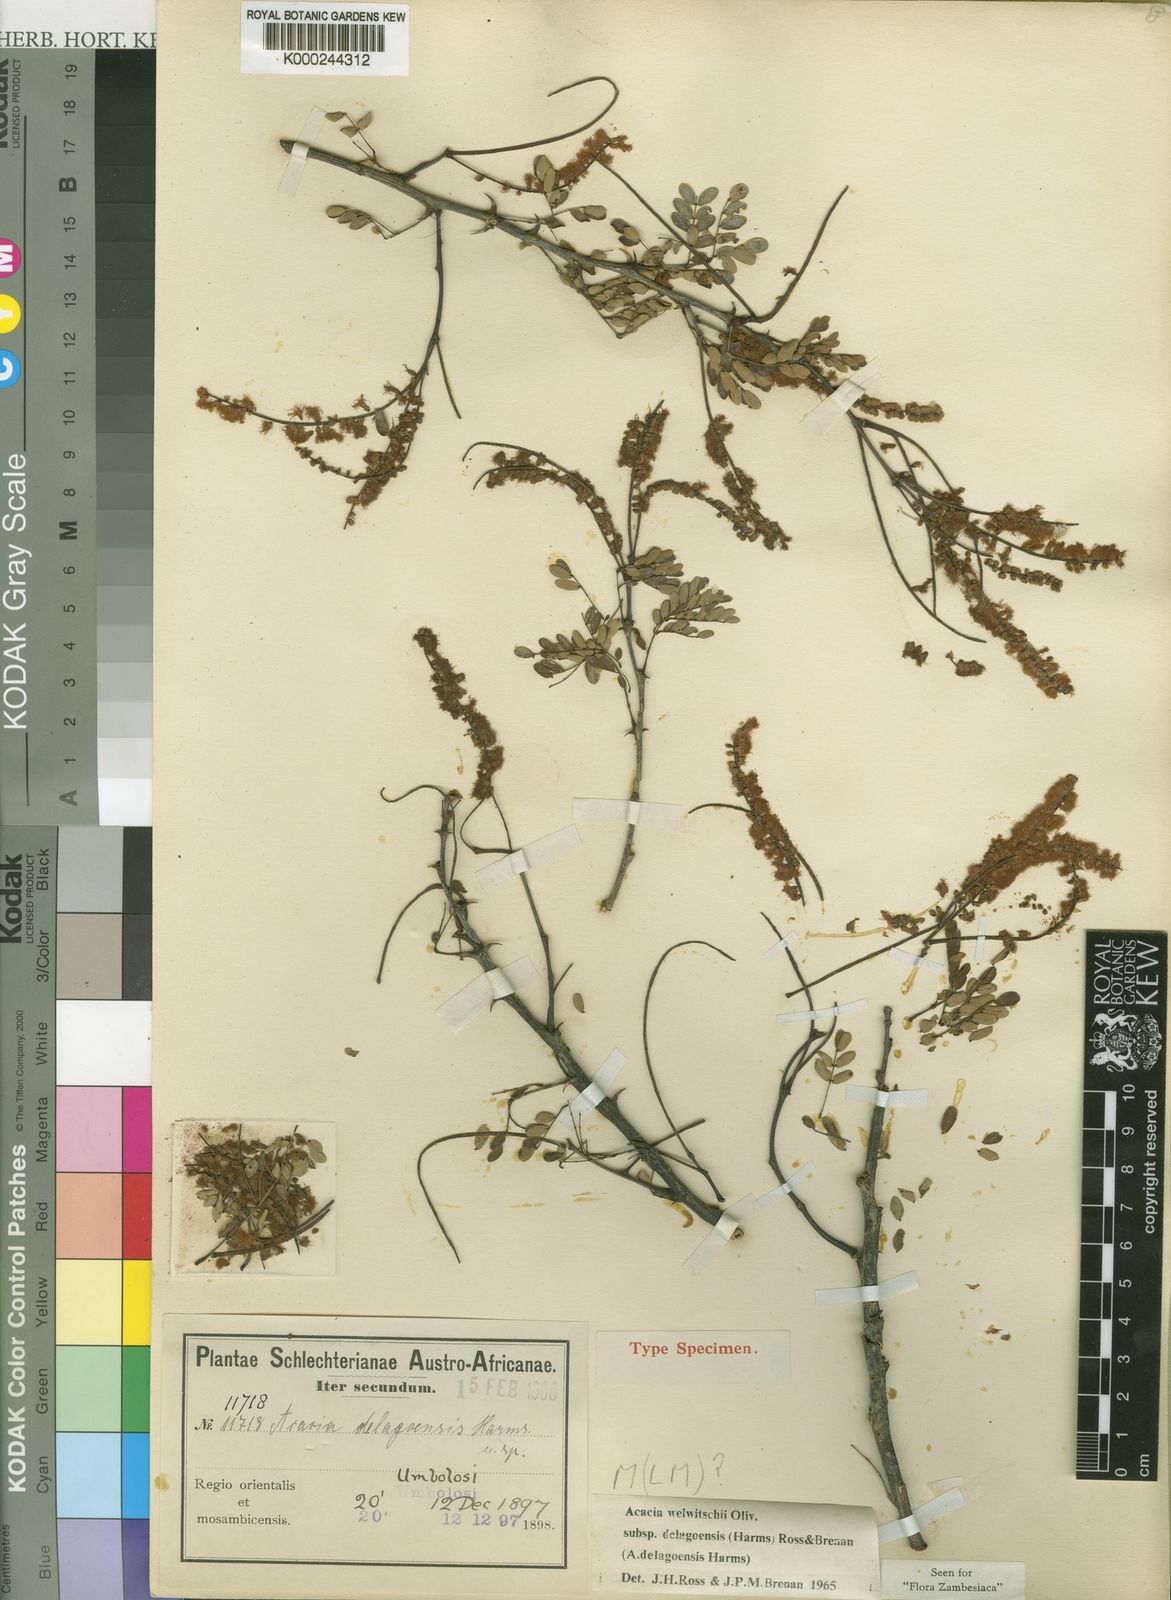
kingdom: Plantae
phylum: Tracheophyta
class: Magnoliopsida
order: Fabales
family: Fabaceae
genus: Senegalia
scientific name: Senegalia welwitschii
